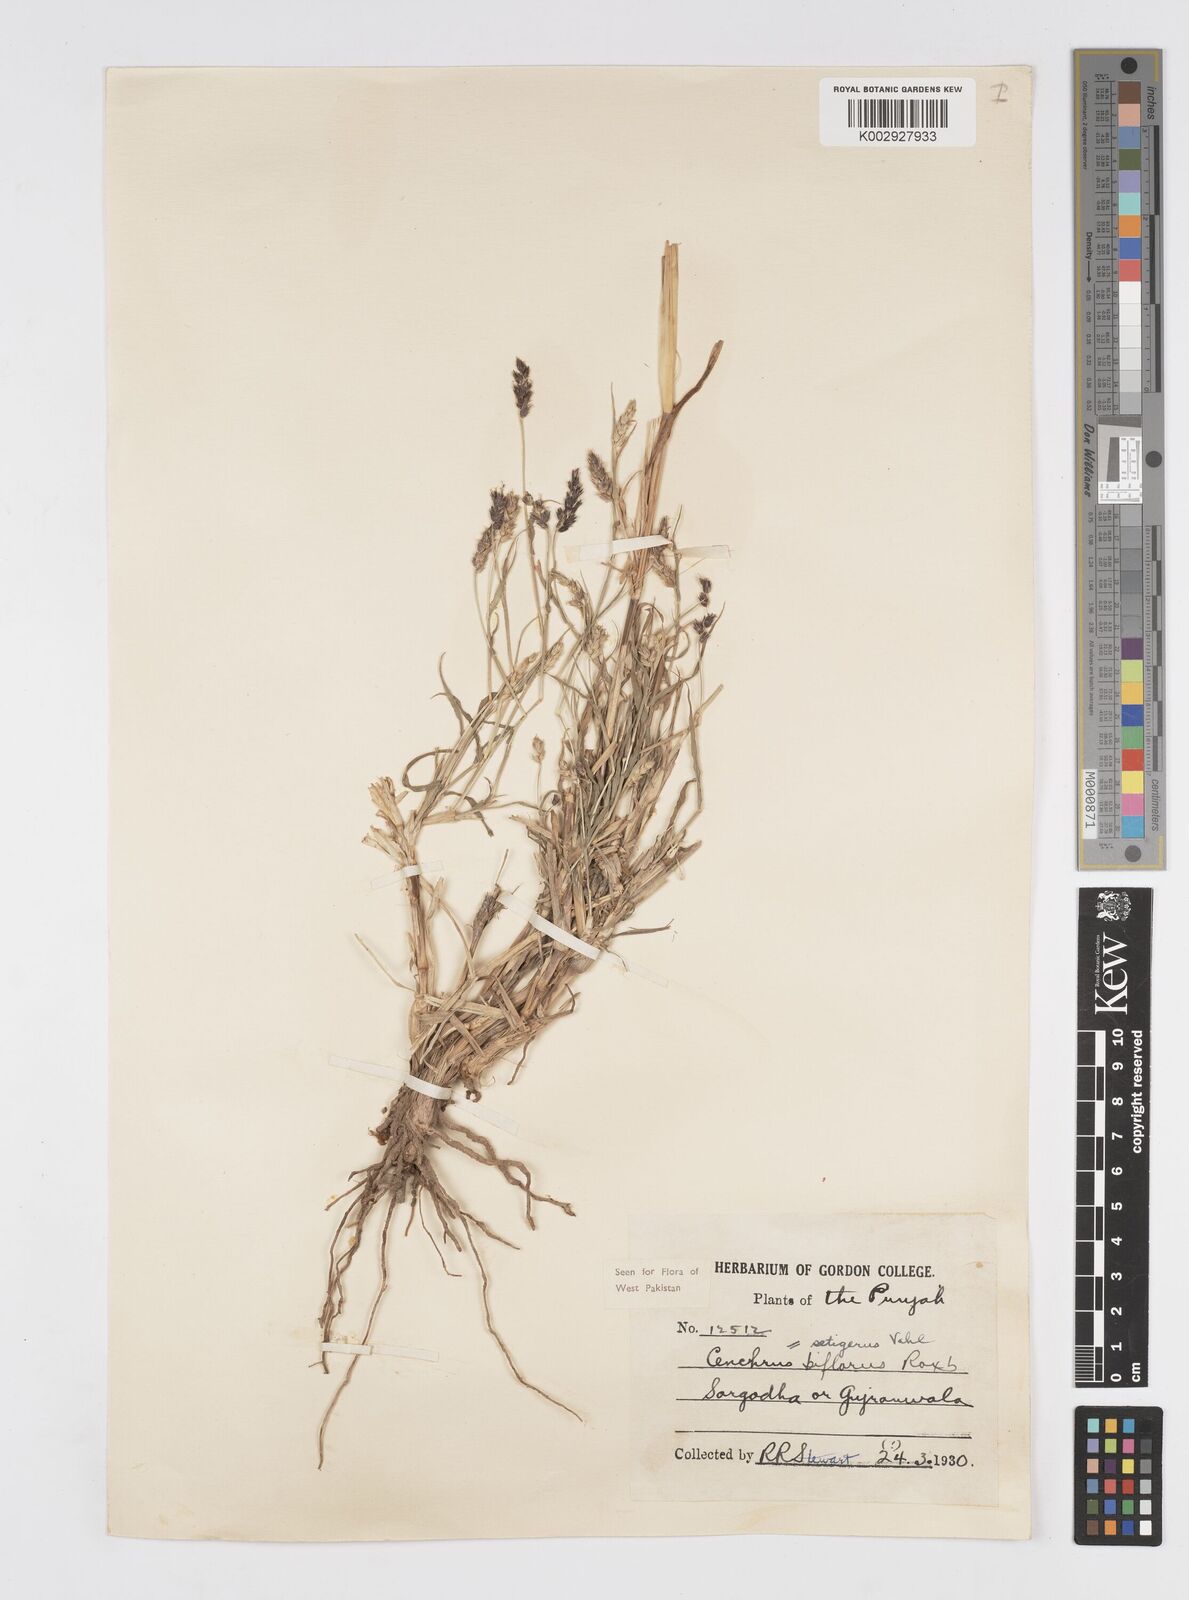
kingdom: Plantae
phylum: Tracheophyta
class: Liliopsida
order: Poales
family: Poaceae
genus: Cenchrus
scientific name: Cenchrus setigerus
